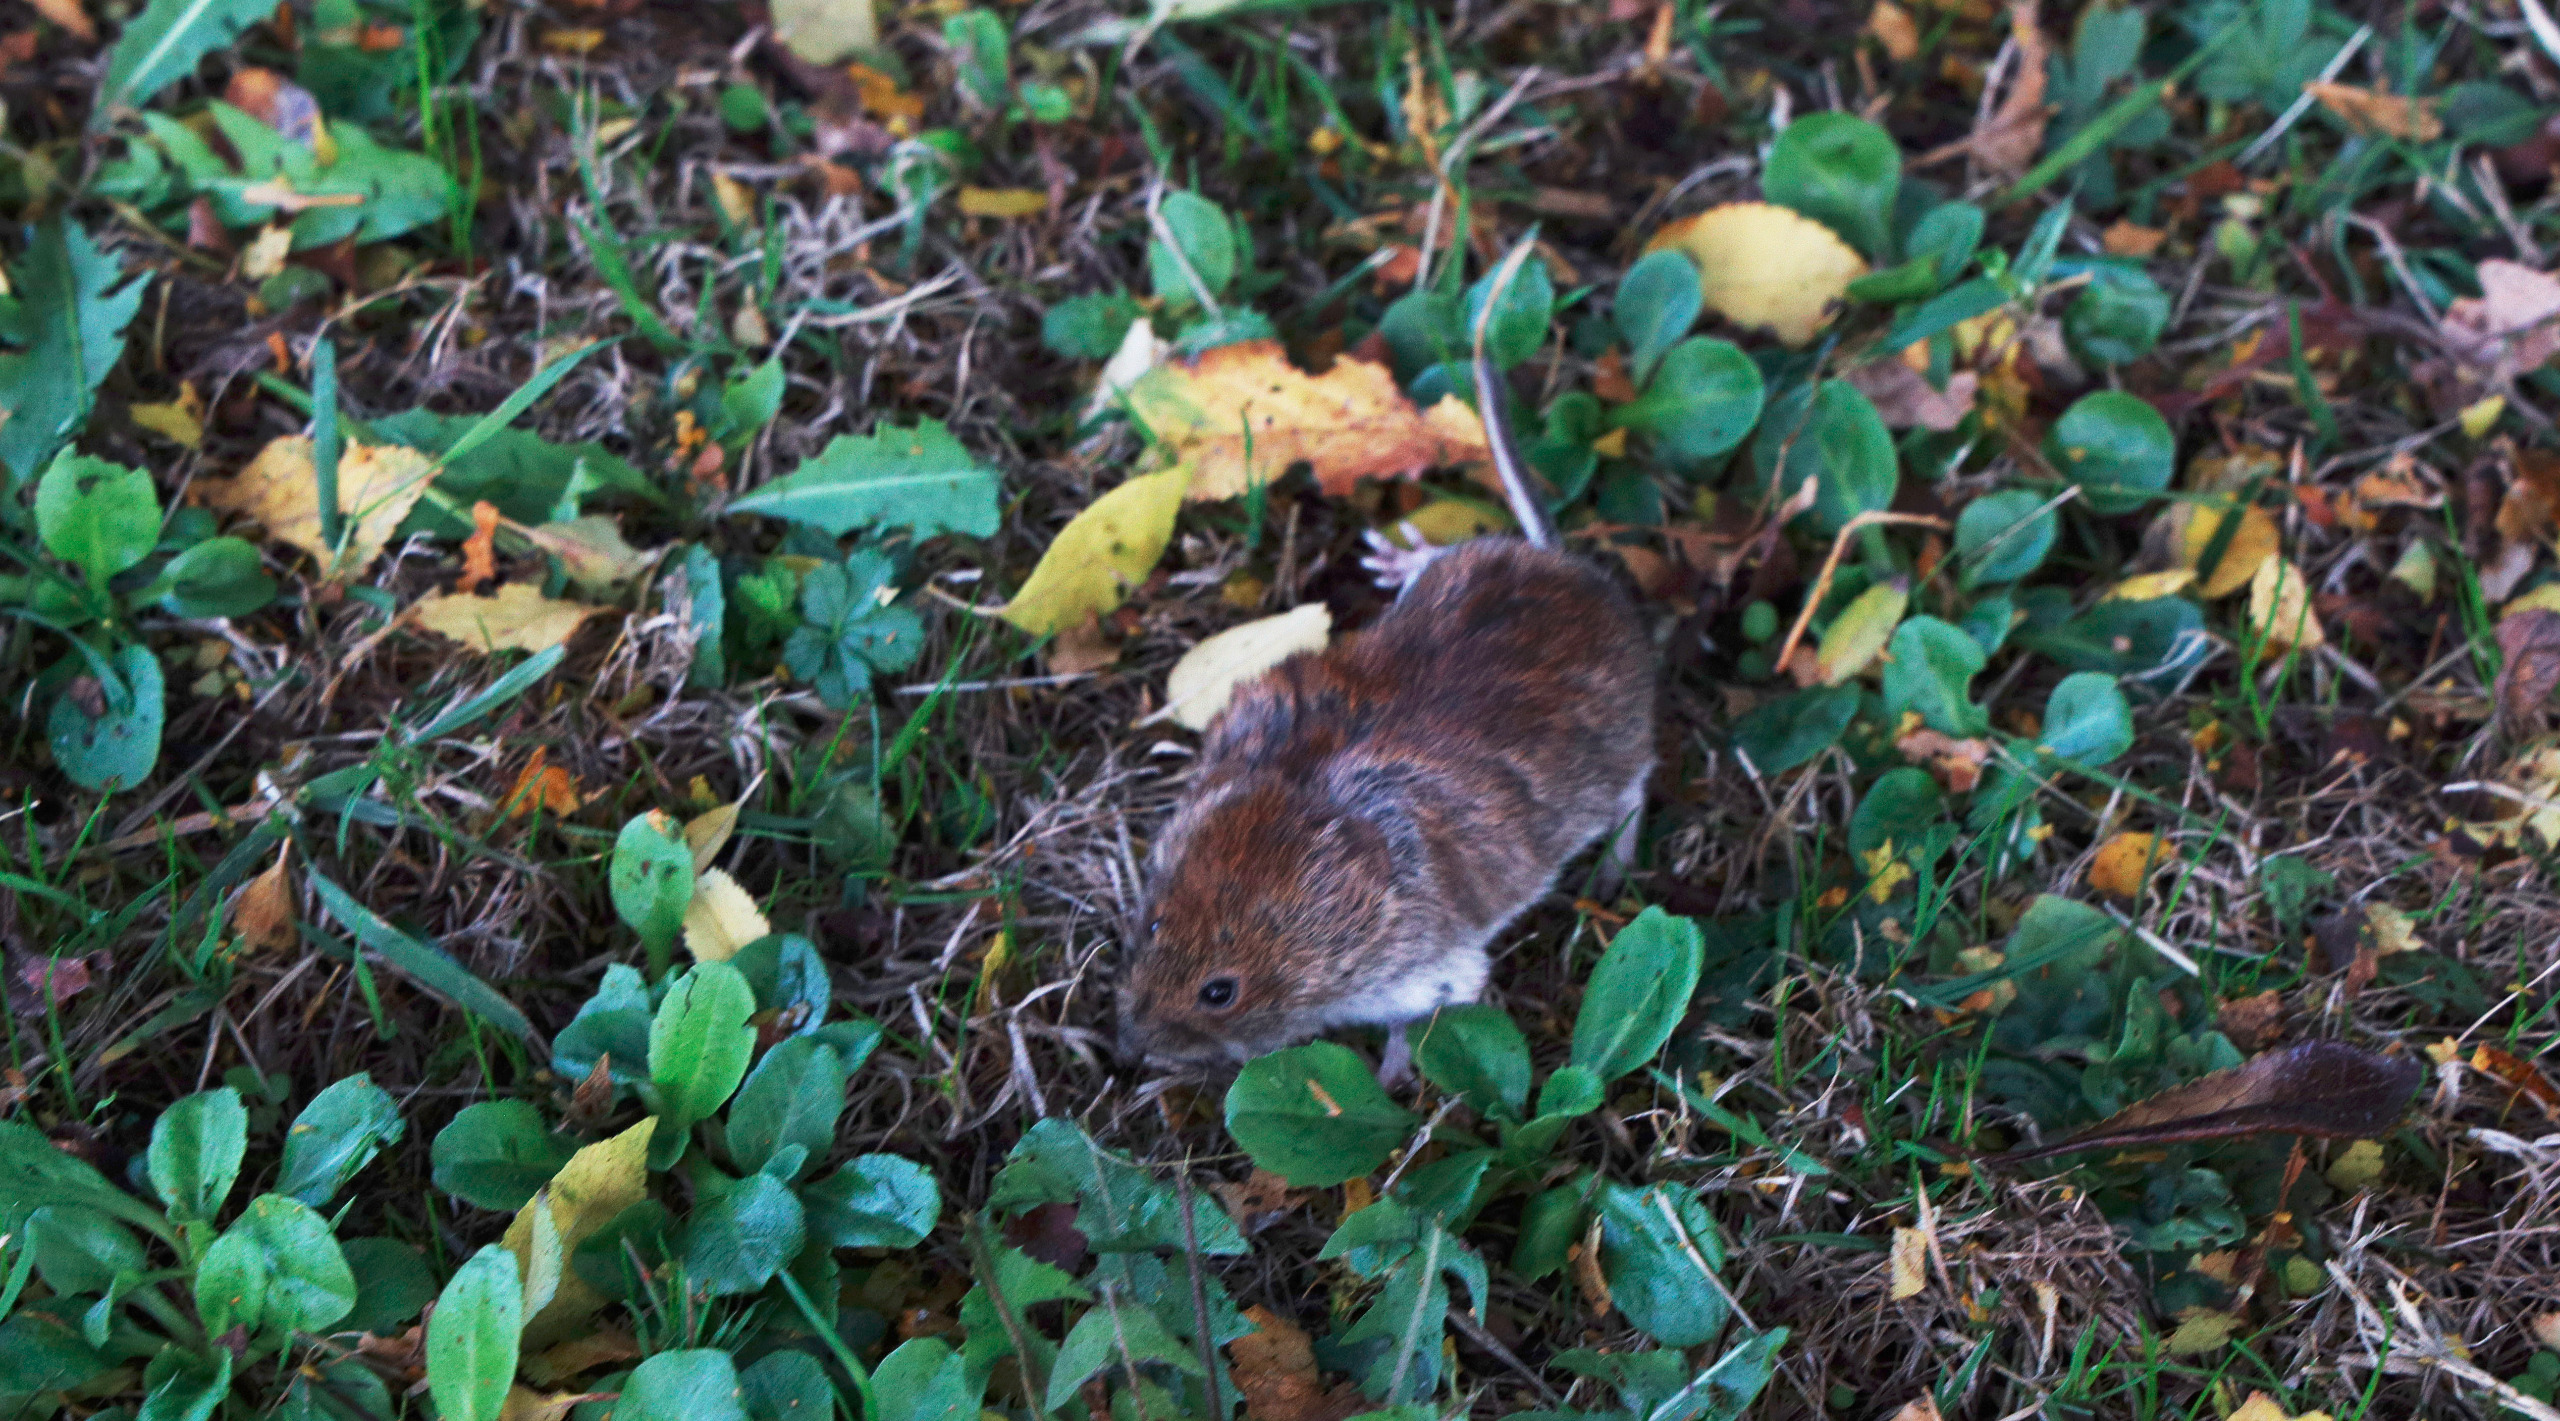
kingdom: Animalia
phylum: Chordata
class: Mammalia
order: Rodentia
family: Cricetidae
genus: Myodes
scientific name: Myodes glareolus
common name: Rødmus
